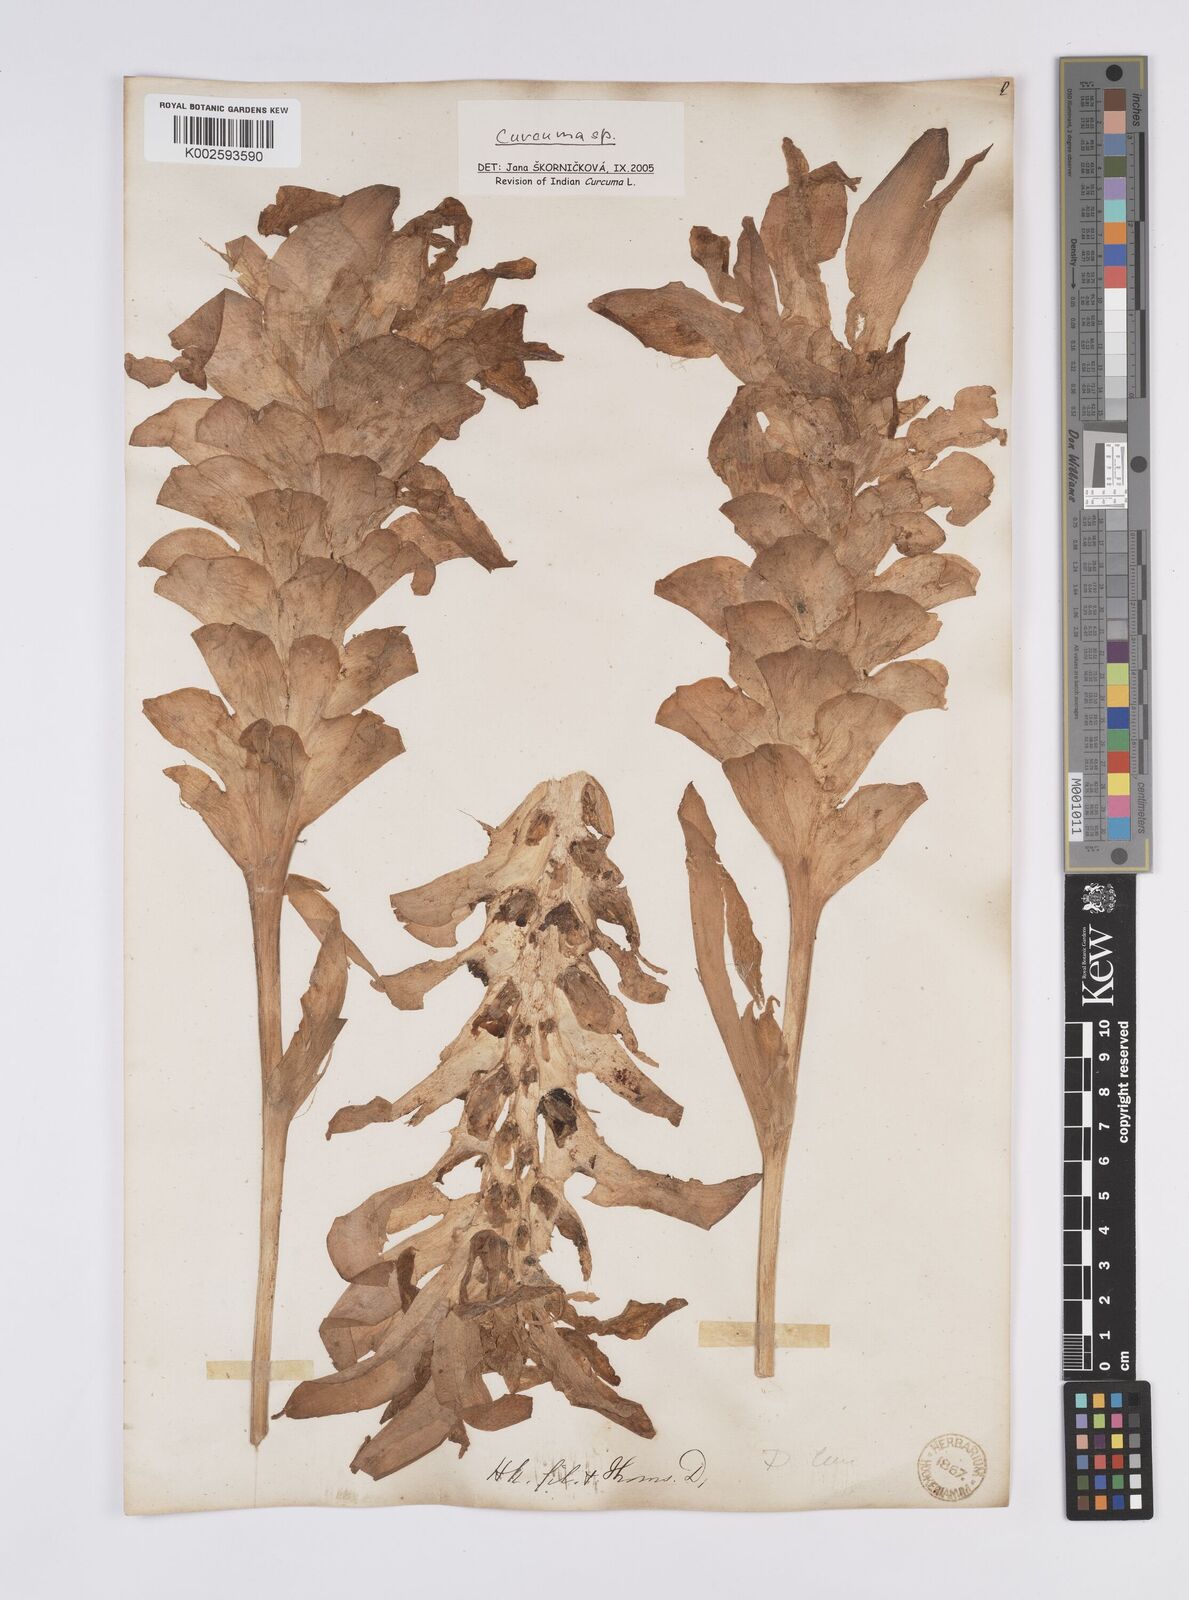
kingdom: Plantae
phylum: Tracheophyta
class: Liliopsida
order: Zingiberales
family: Zingiberaceae
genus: Curcuma
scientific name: Curcuma aromatica
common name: Wild turmeric
